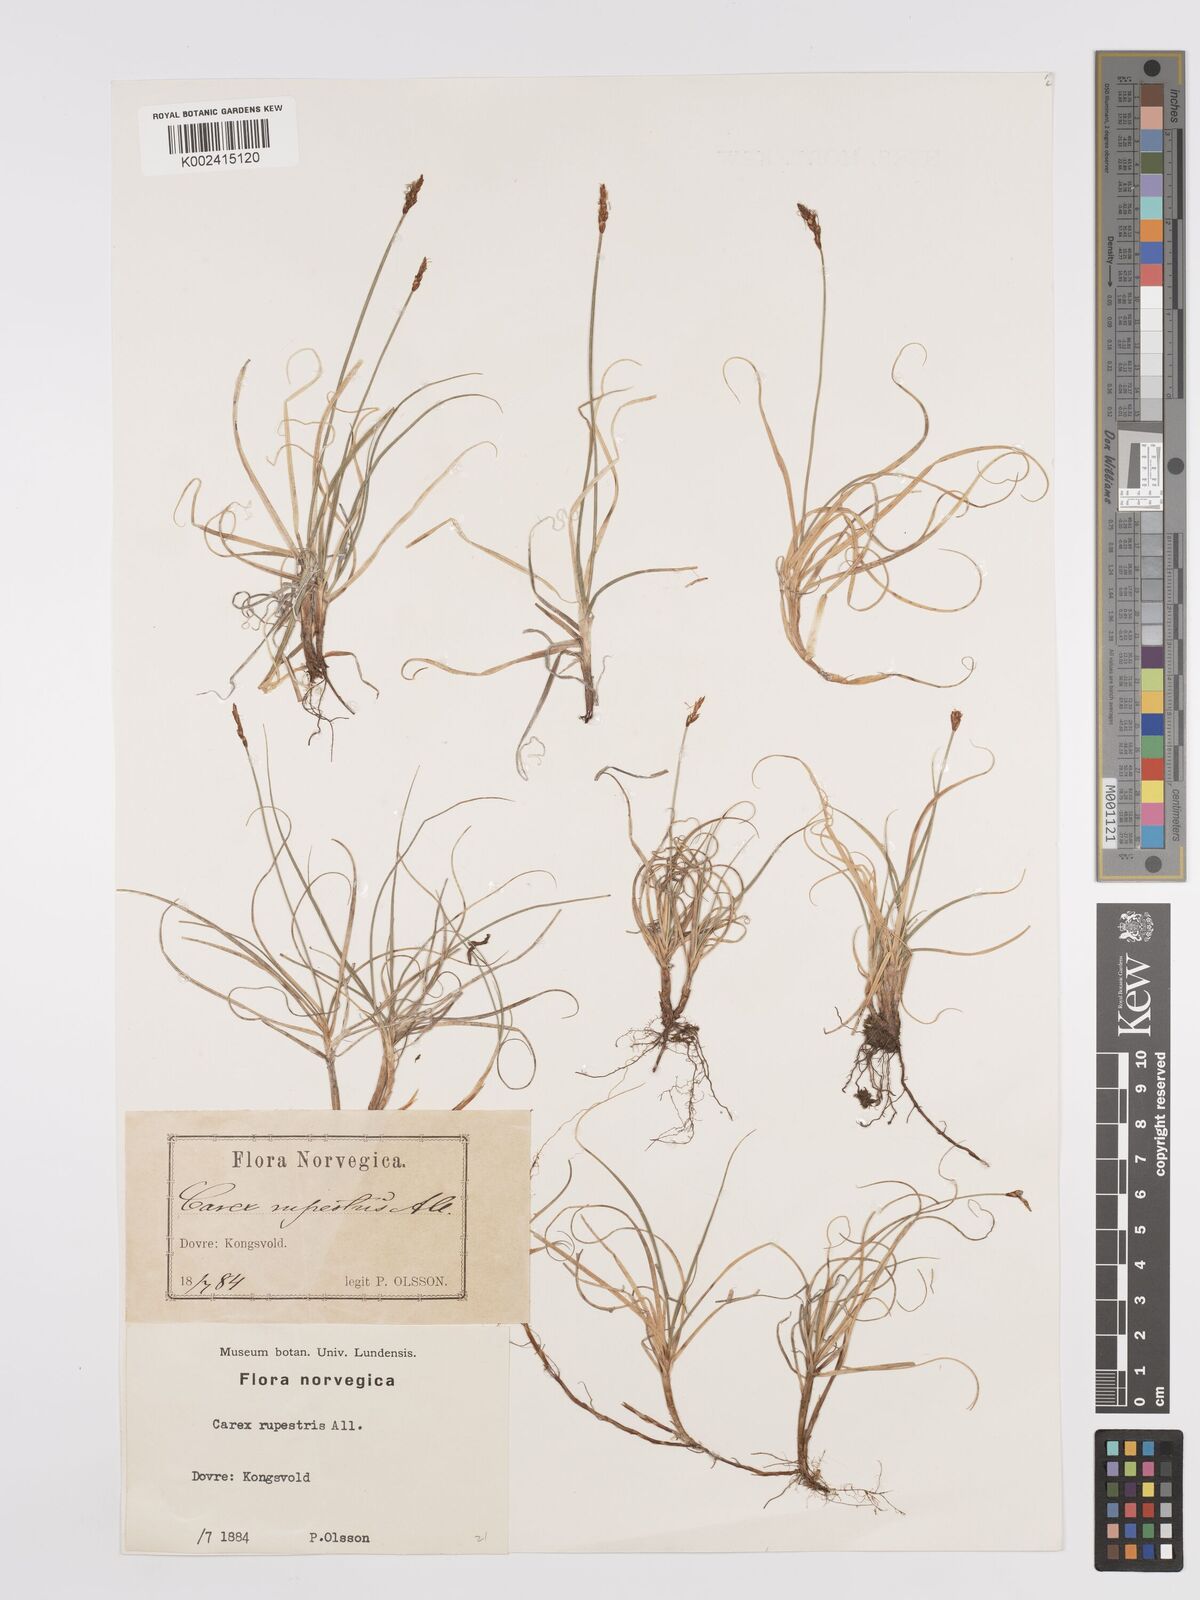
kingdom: Plantae
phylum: Tracheophyta
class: Liliopsida
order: Poales
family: Cyperaceae
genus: Carex
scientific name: Carex rupestris
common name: Rock sedge
